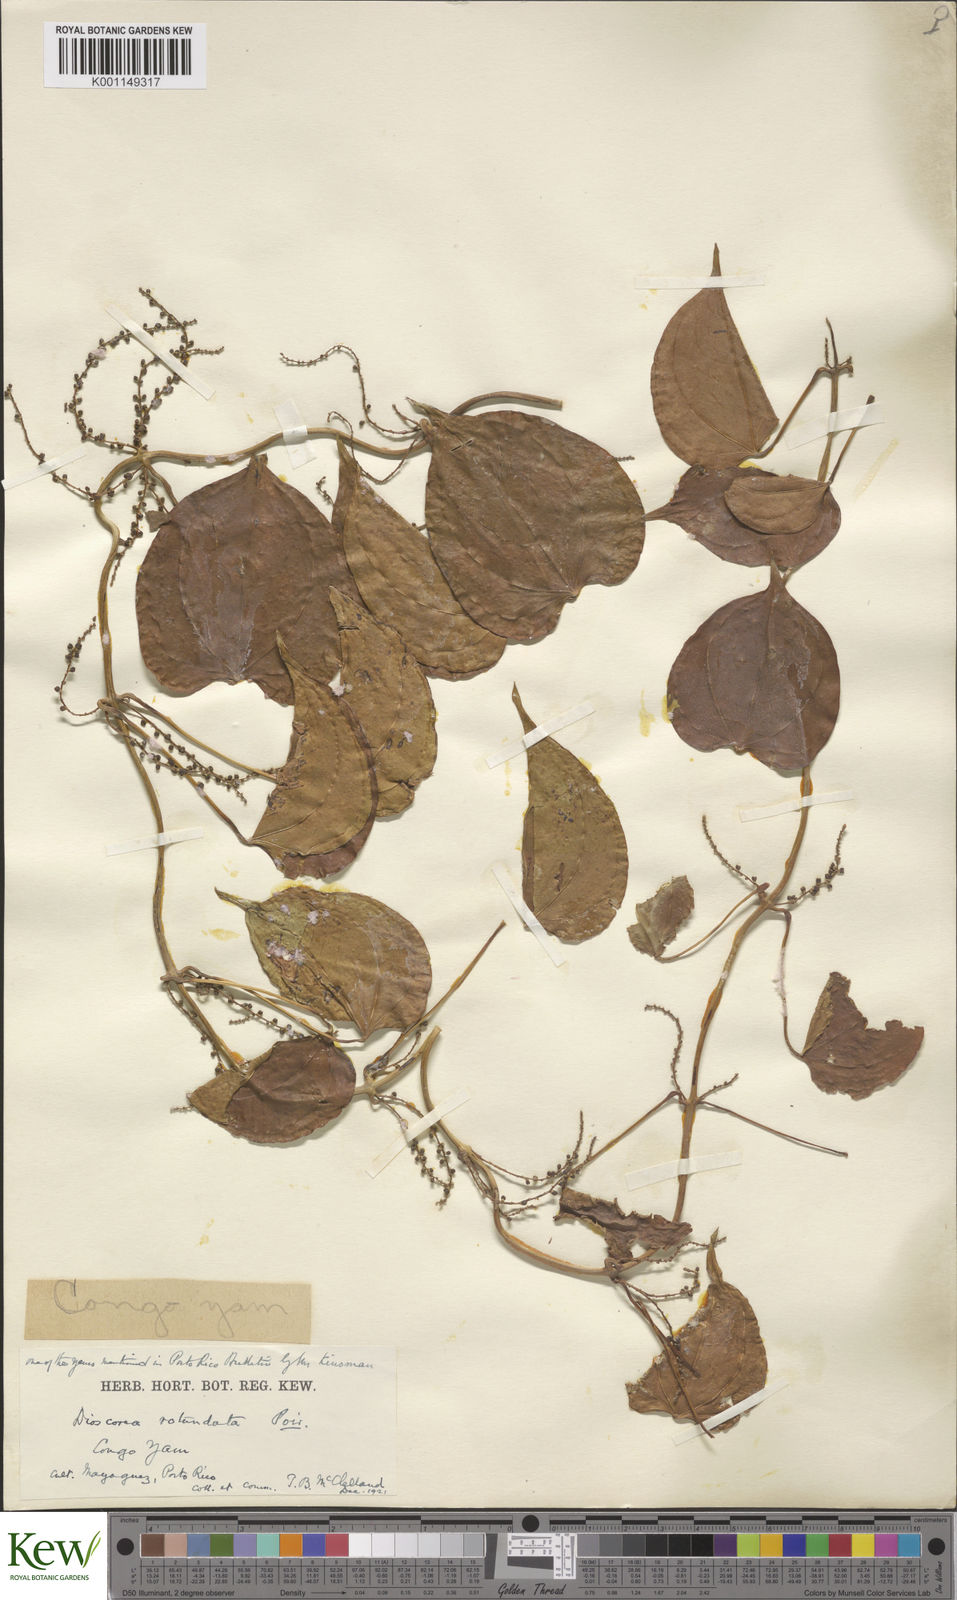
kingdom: Plantae
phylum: Tracheophyta
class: Liliopsida
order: Dioscoreales
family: Dioscoreaceae
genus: Dioscorea
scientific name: Dioscorea cayenensis
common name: Attoto yam
